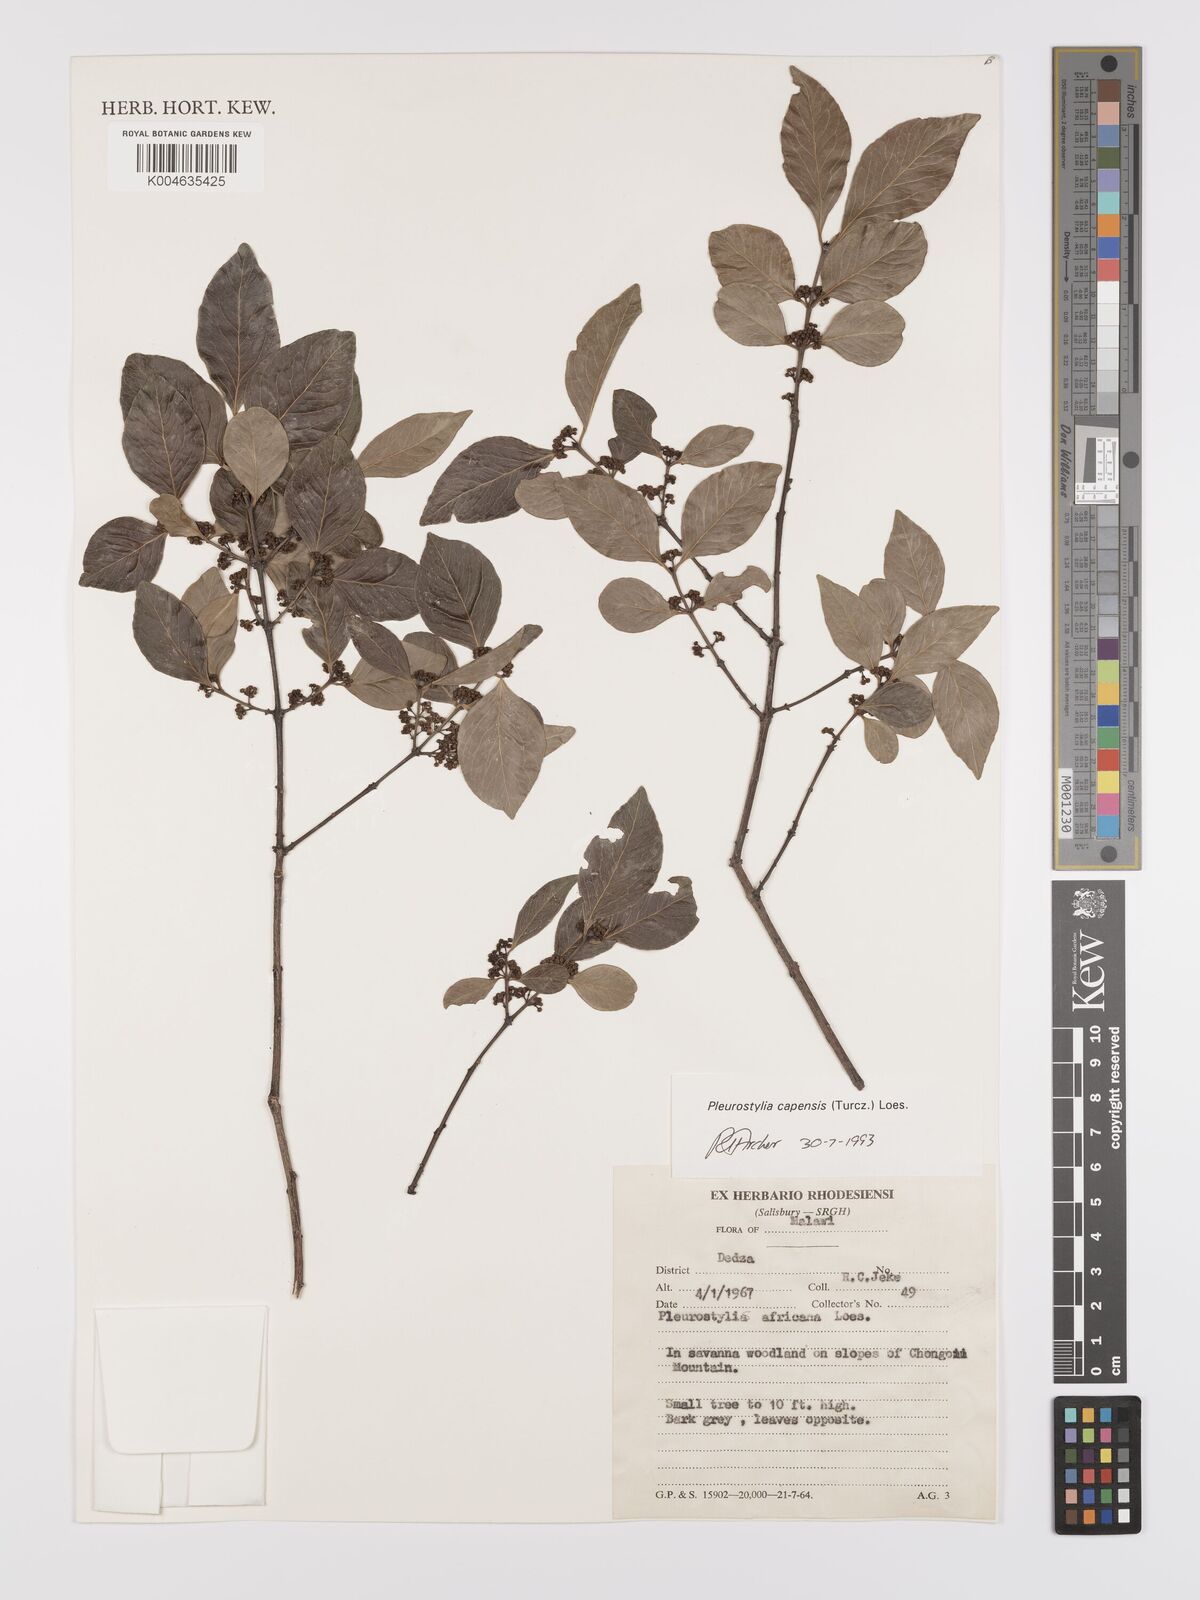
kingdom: Plantae
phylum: Tracheophyta
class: Magnoliopsida
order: Celastrales
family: Celastraceae
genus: Pleurostylia
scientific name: Pleurostylia africana
